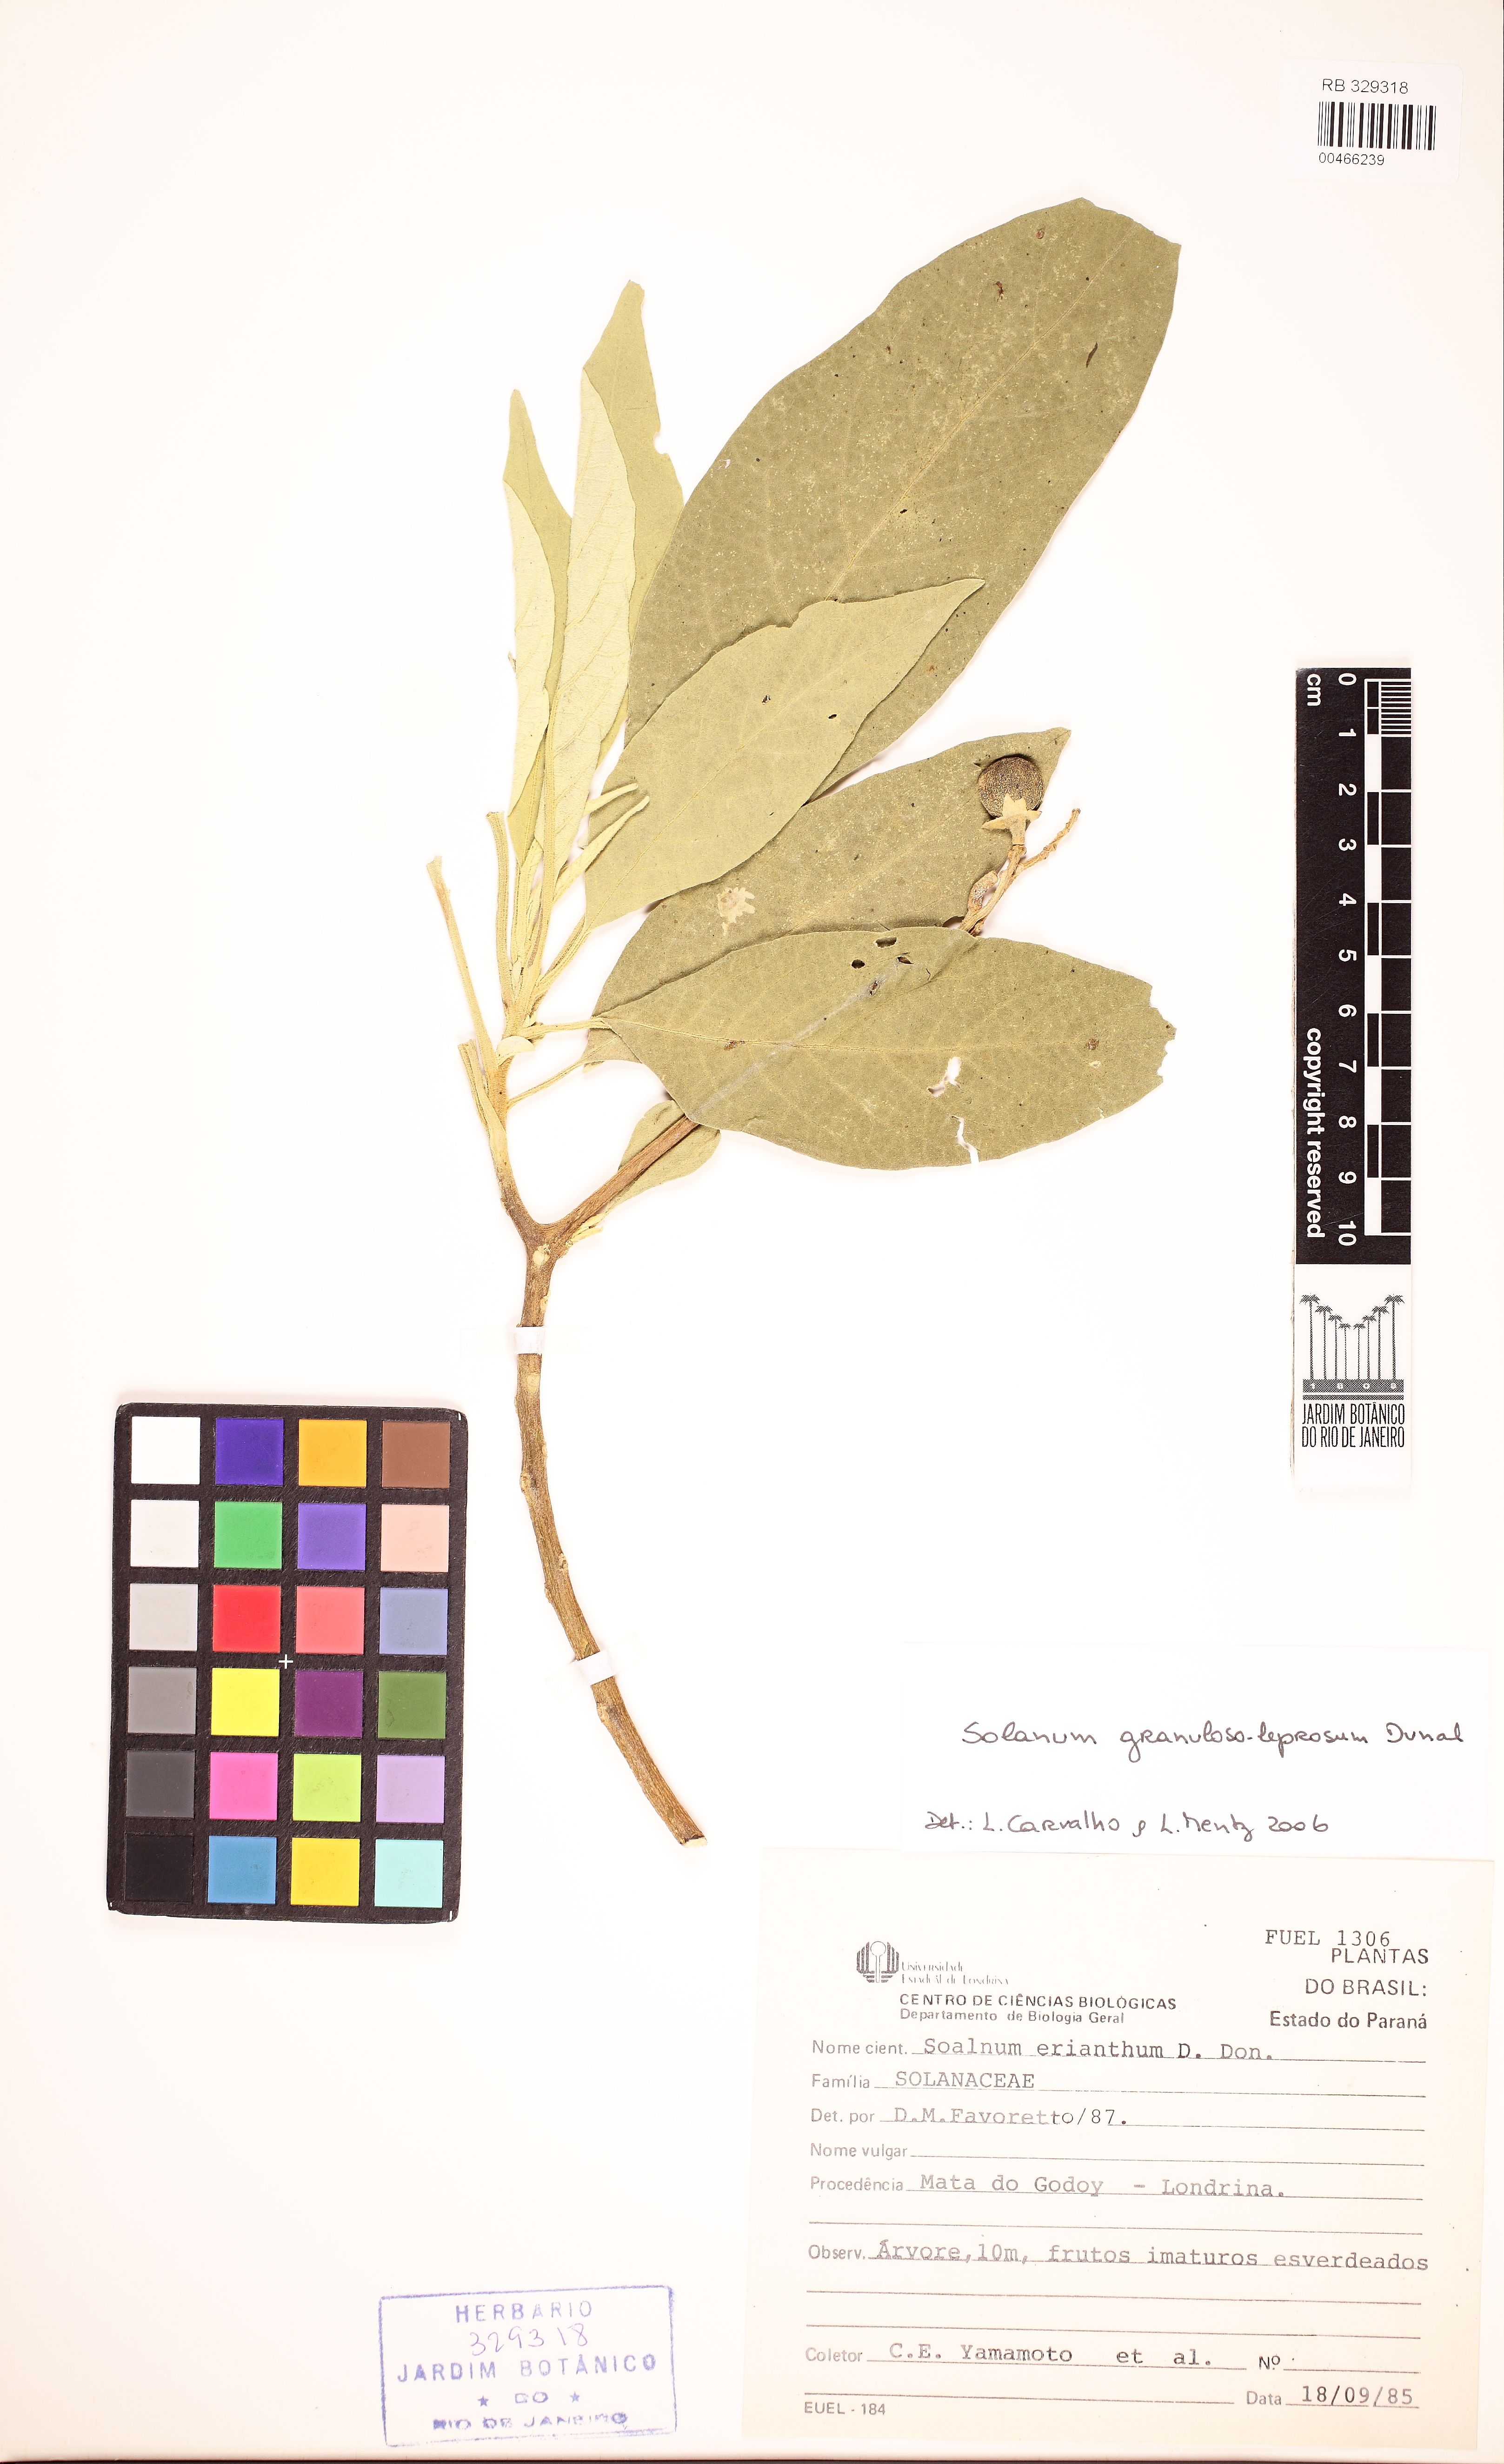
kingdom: Plantae
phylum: Tracheophyta
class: Magnoliopsida
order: Solanales
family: Solanaceae
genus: Solanum
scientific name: Solanum granulosoleprosum
